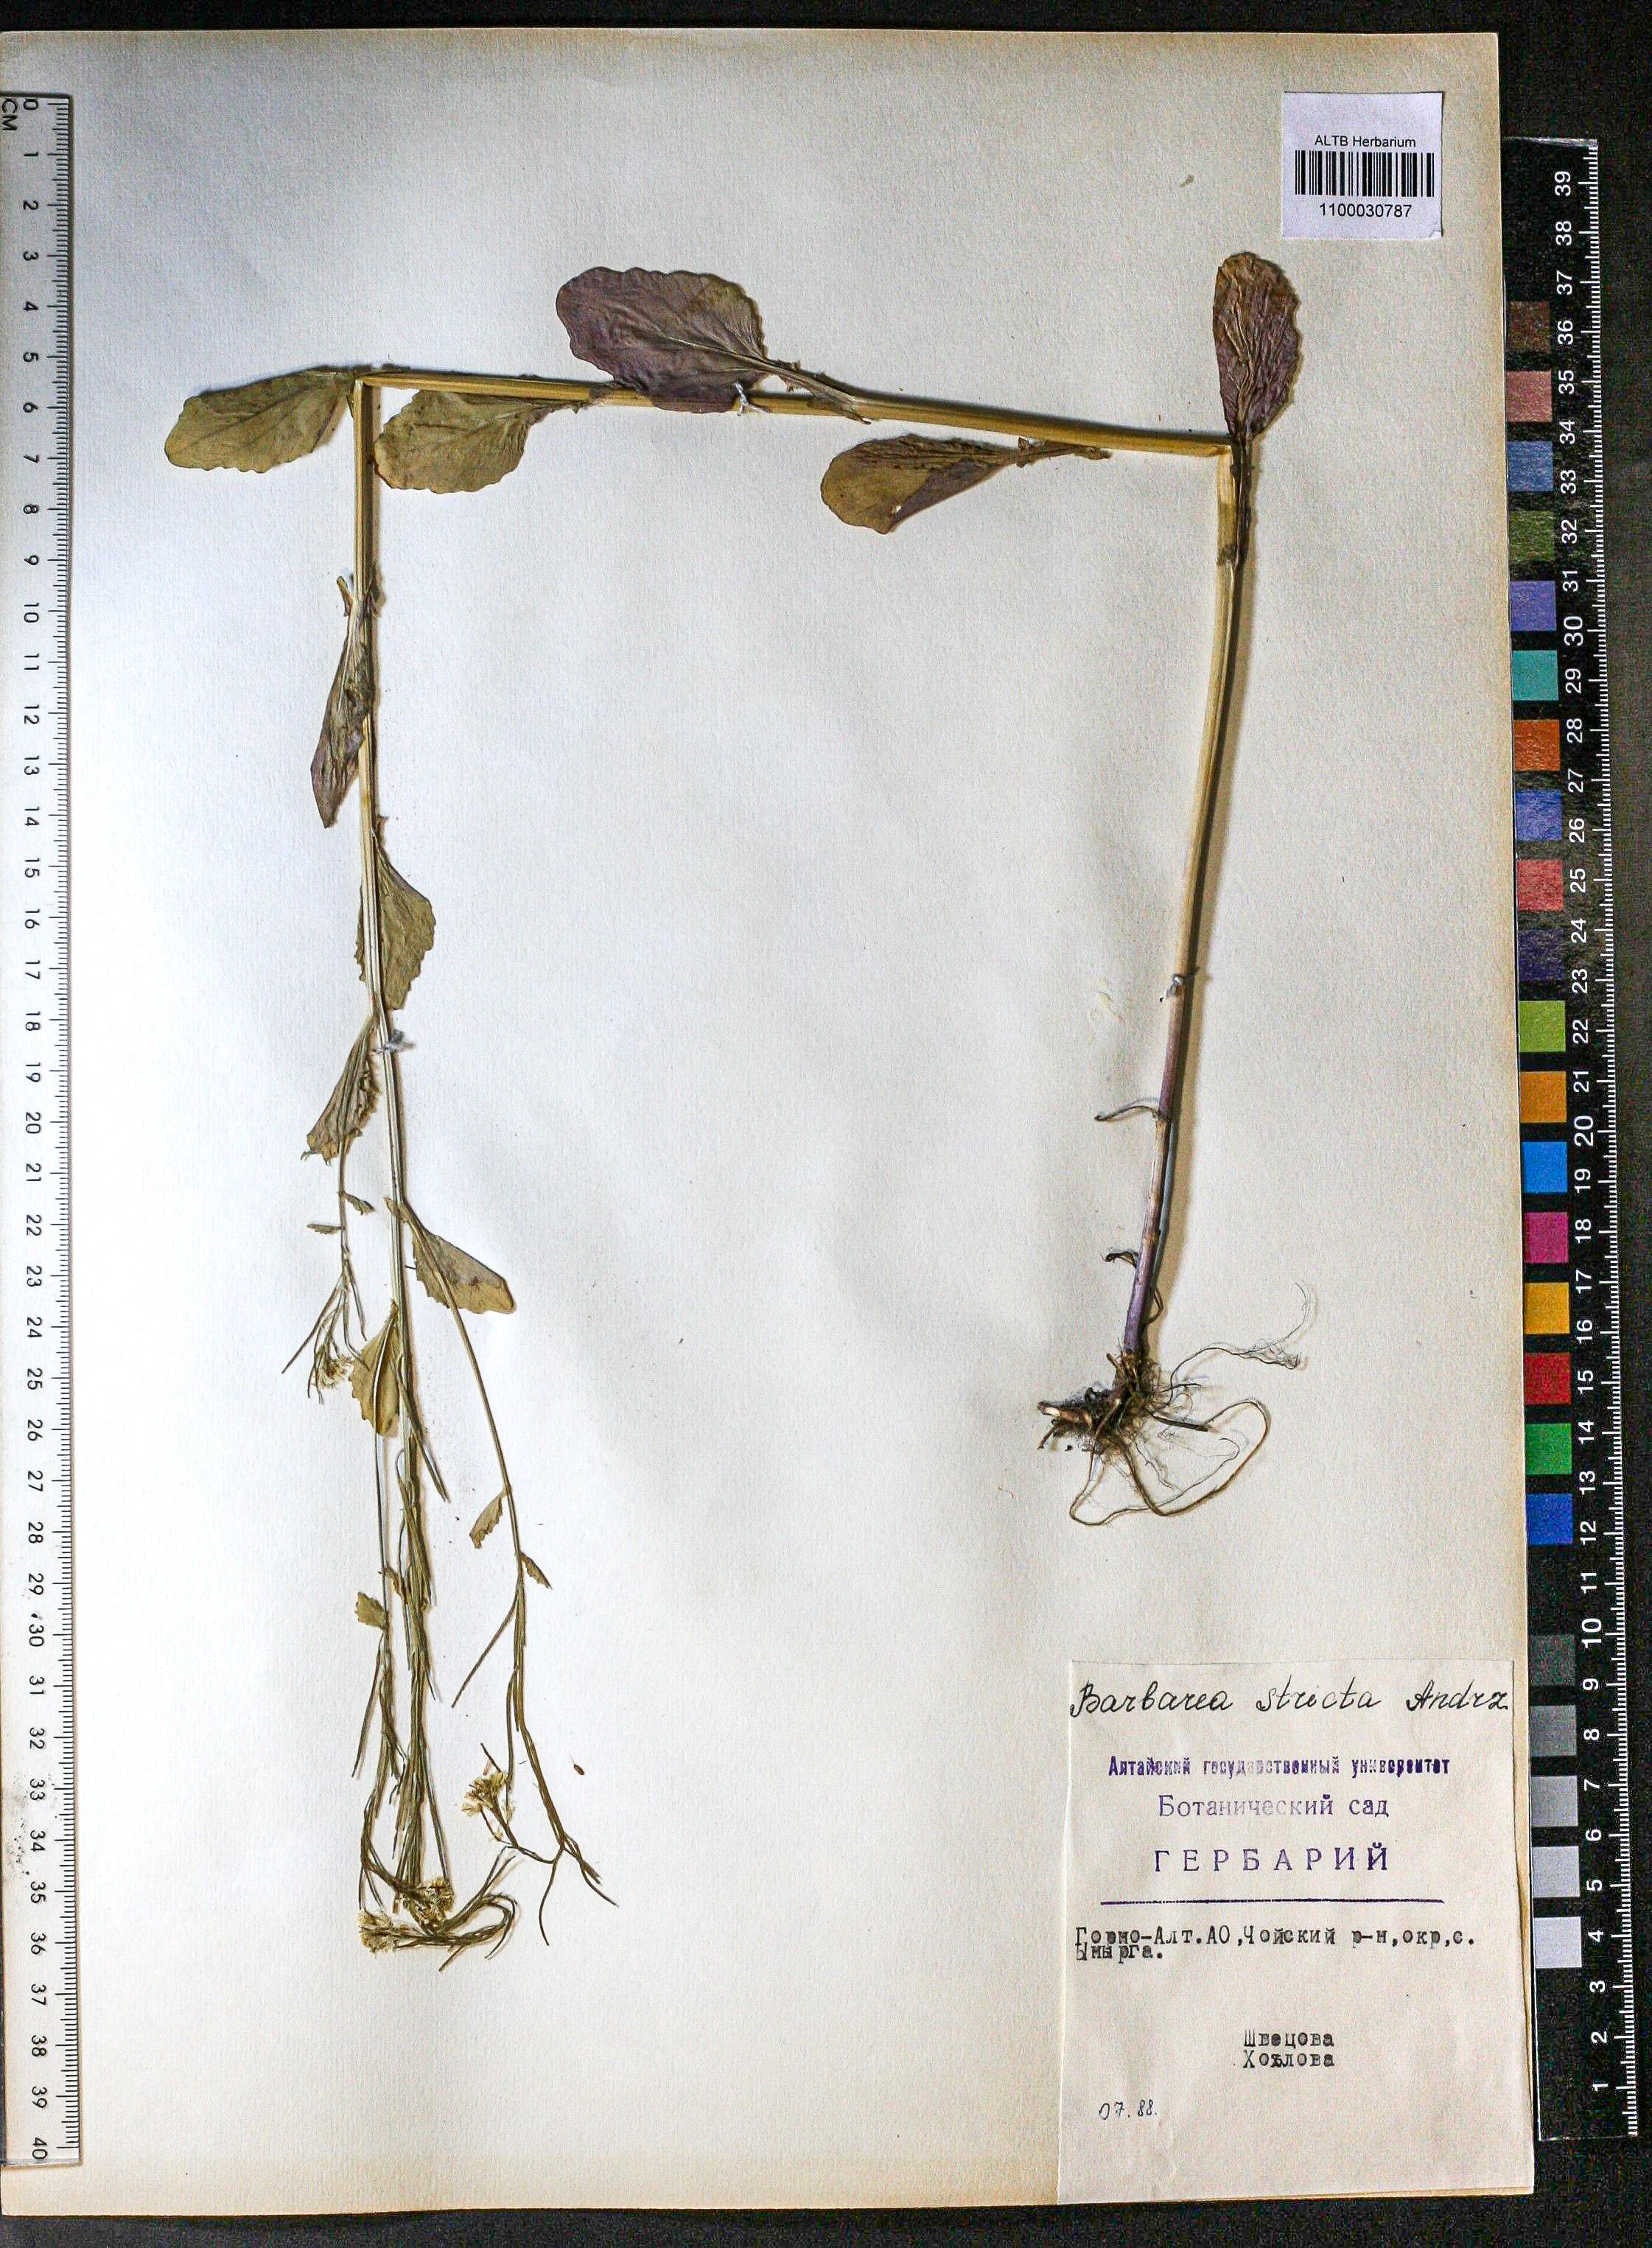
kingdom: Plantae
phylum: Tracheophyta
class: Magnoliopsida
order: Brassicales
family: Brassicaceae
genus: Barbarea
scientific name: Barbarea vulgaris
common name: Cressy-greens
